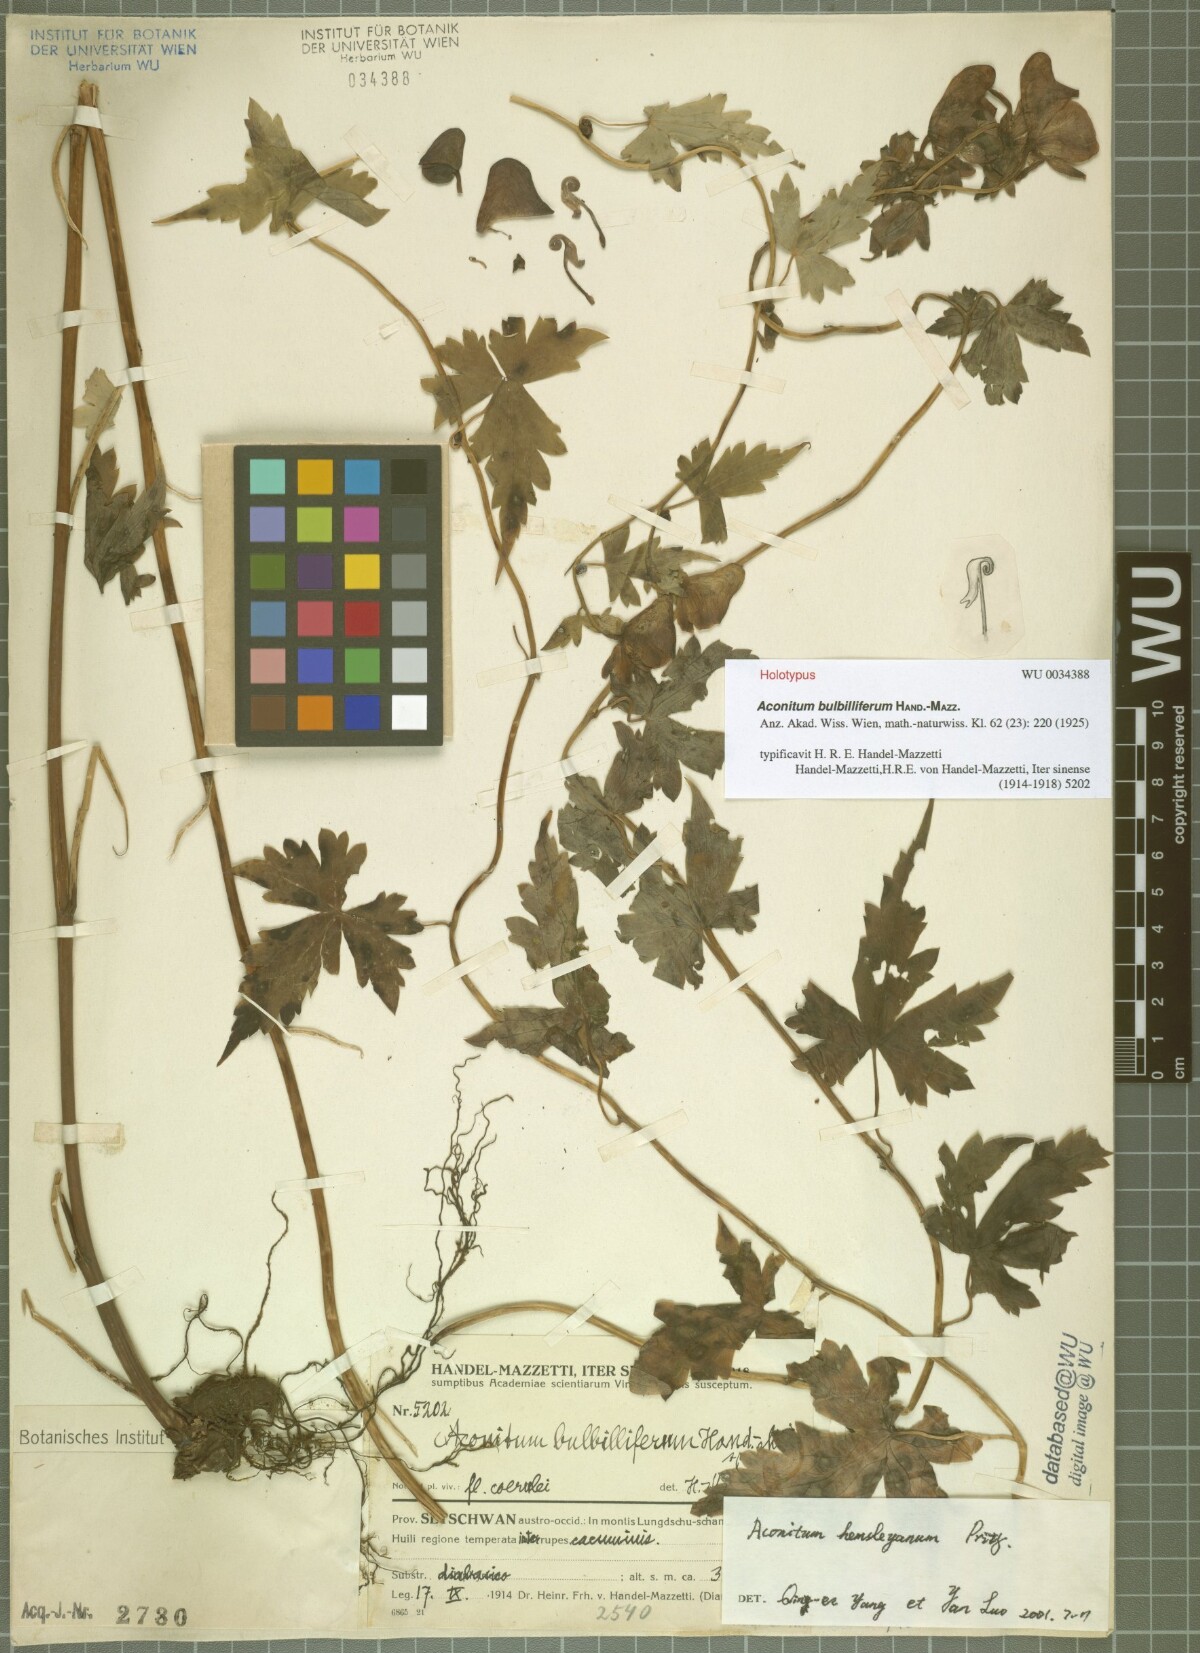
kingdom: Plantae
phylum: Tracheophyta
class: Magnoliopsida
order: Ranunculales
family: Ranunculaceae
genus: Aconitum
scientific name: Aconitum bulbilliferum
